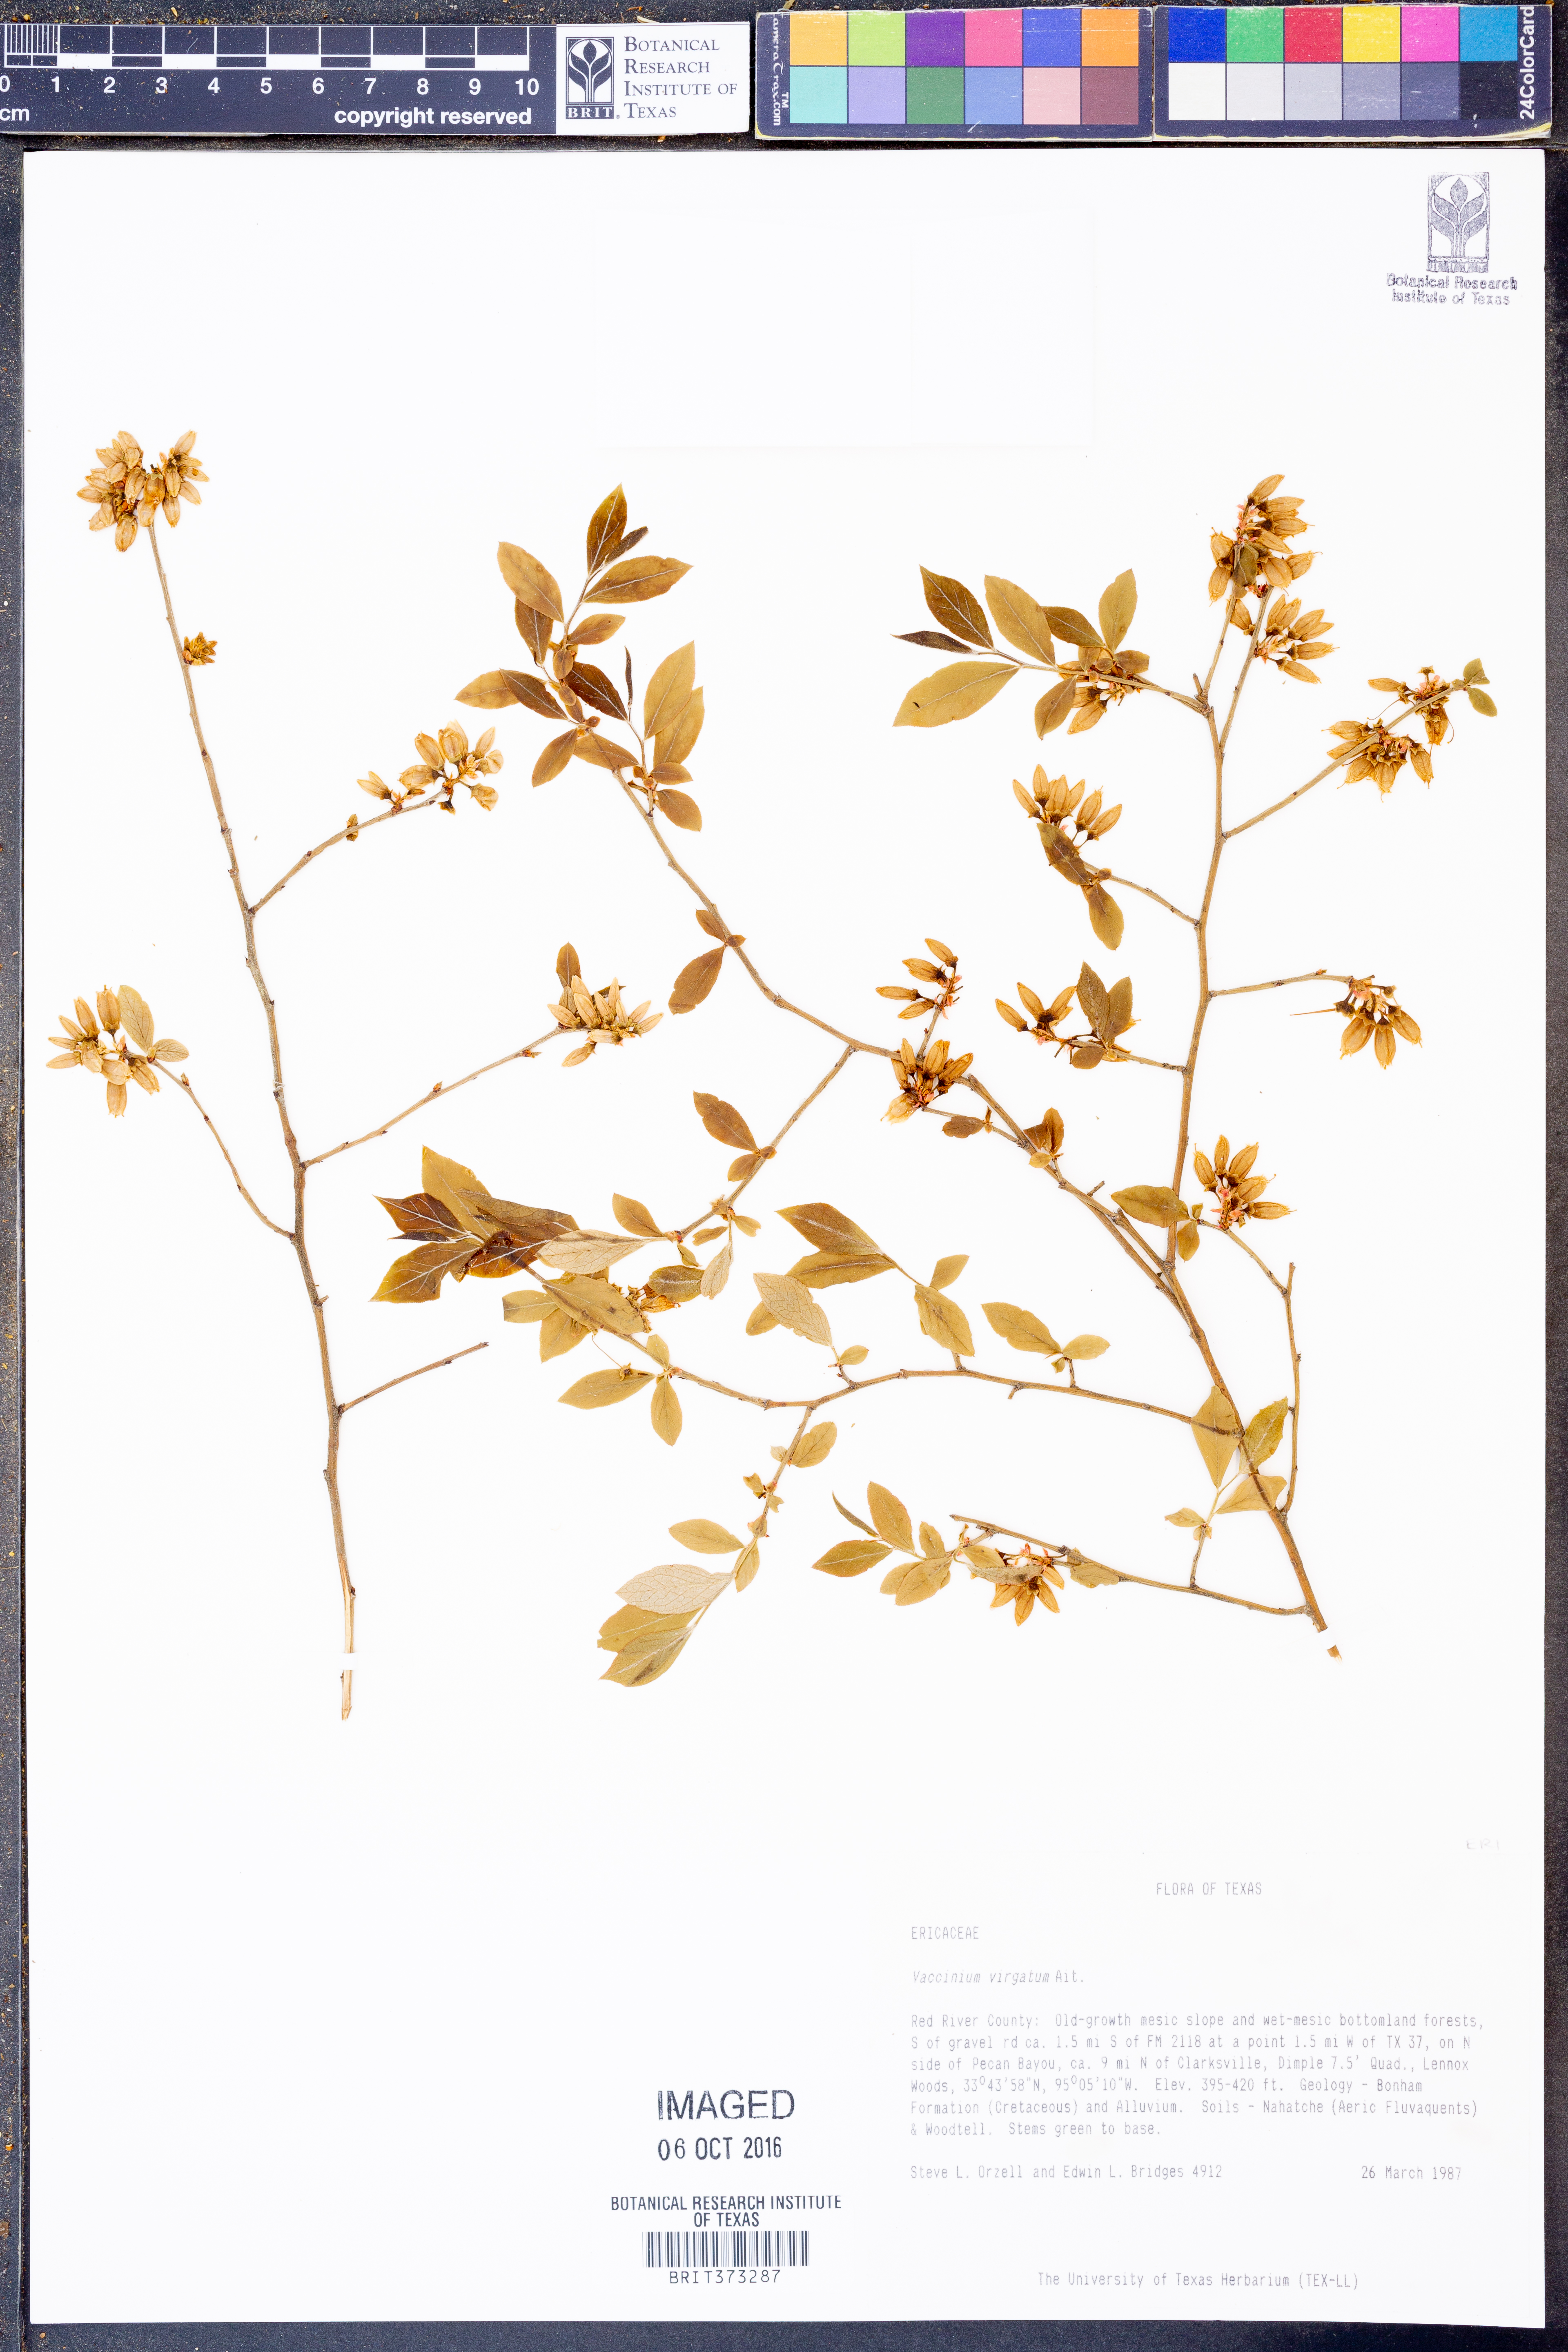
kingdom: Plantae
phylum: Tracheophyta
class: Magnoliopsida
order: Ericales
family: Ericaceae
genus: Vaccinium
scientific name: Vaccinium corymbosum
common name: Blueberry
